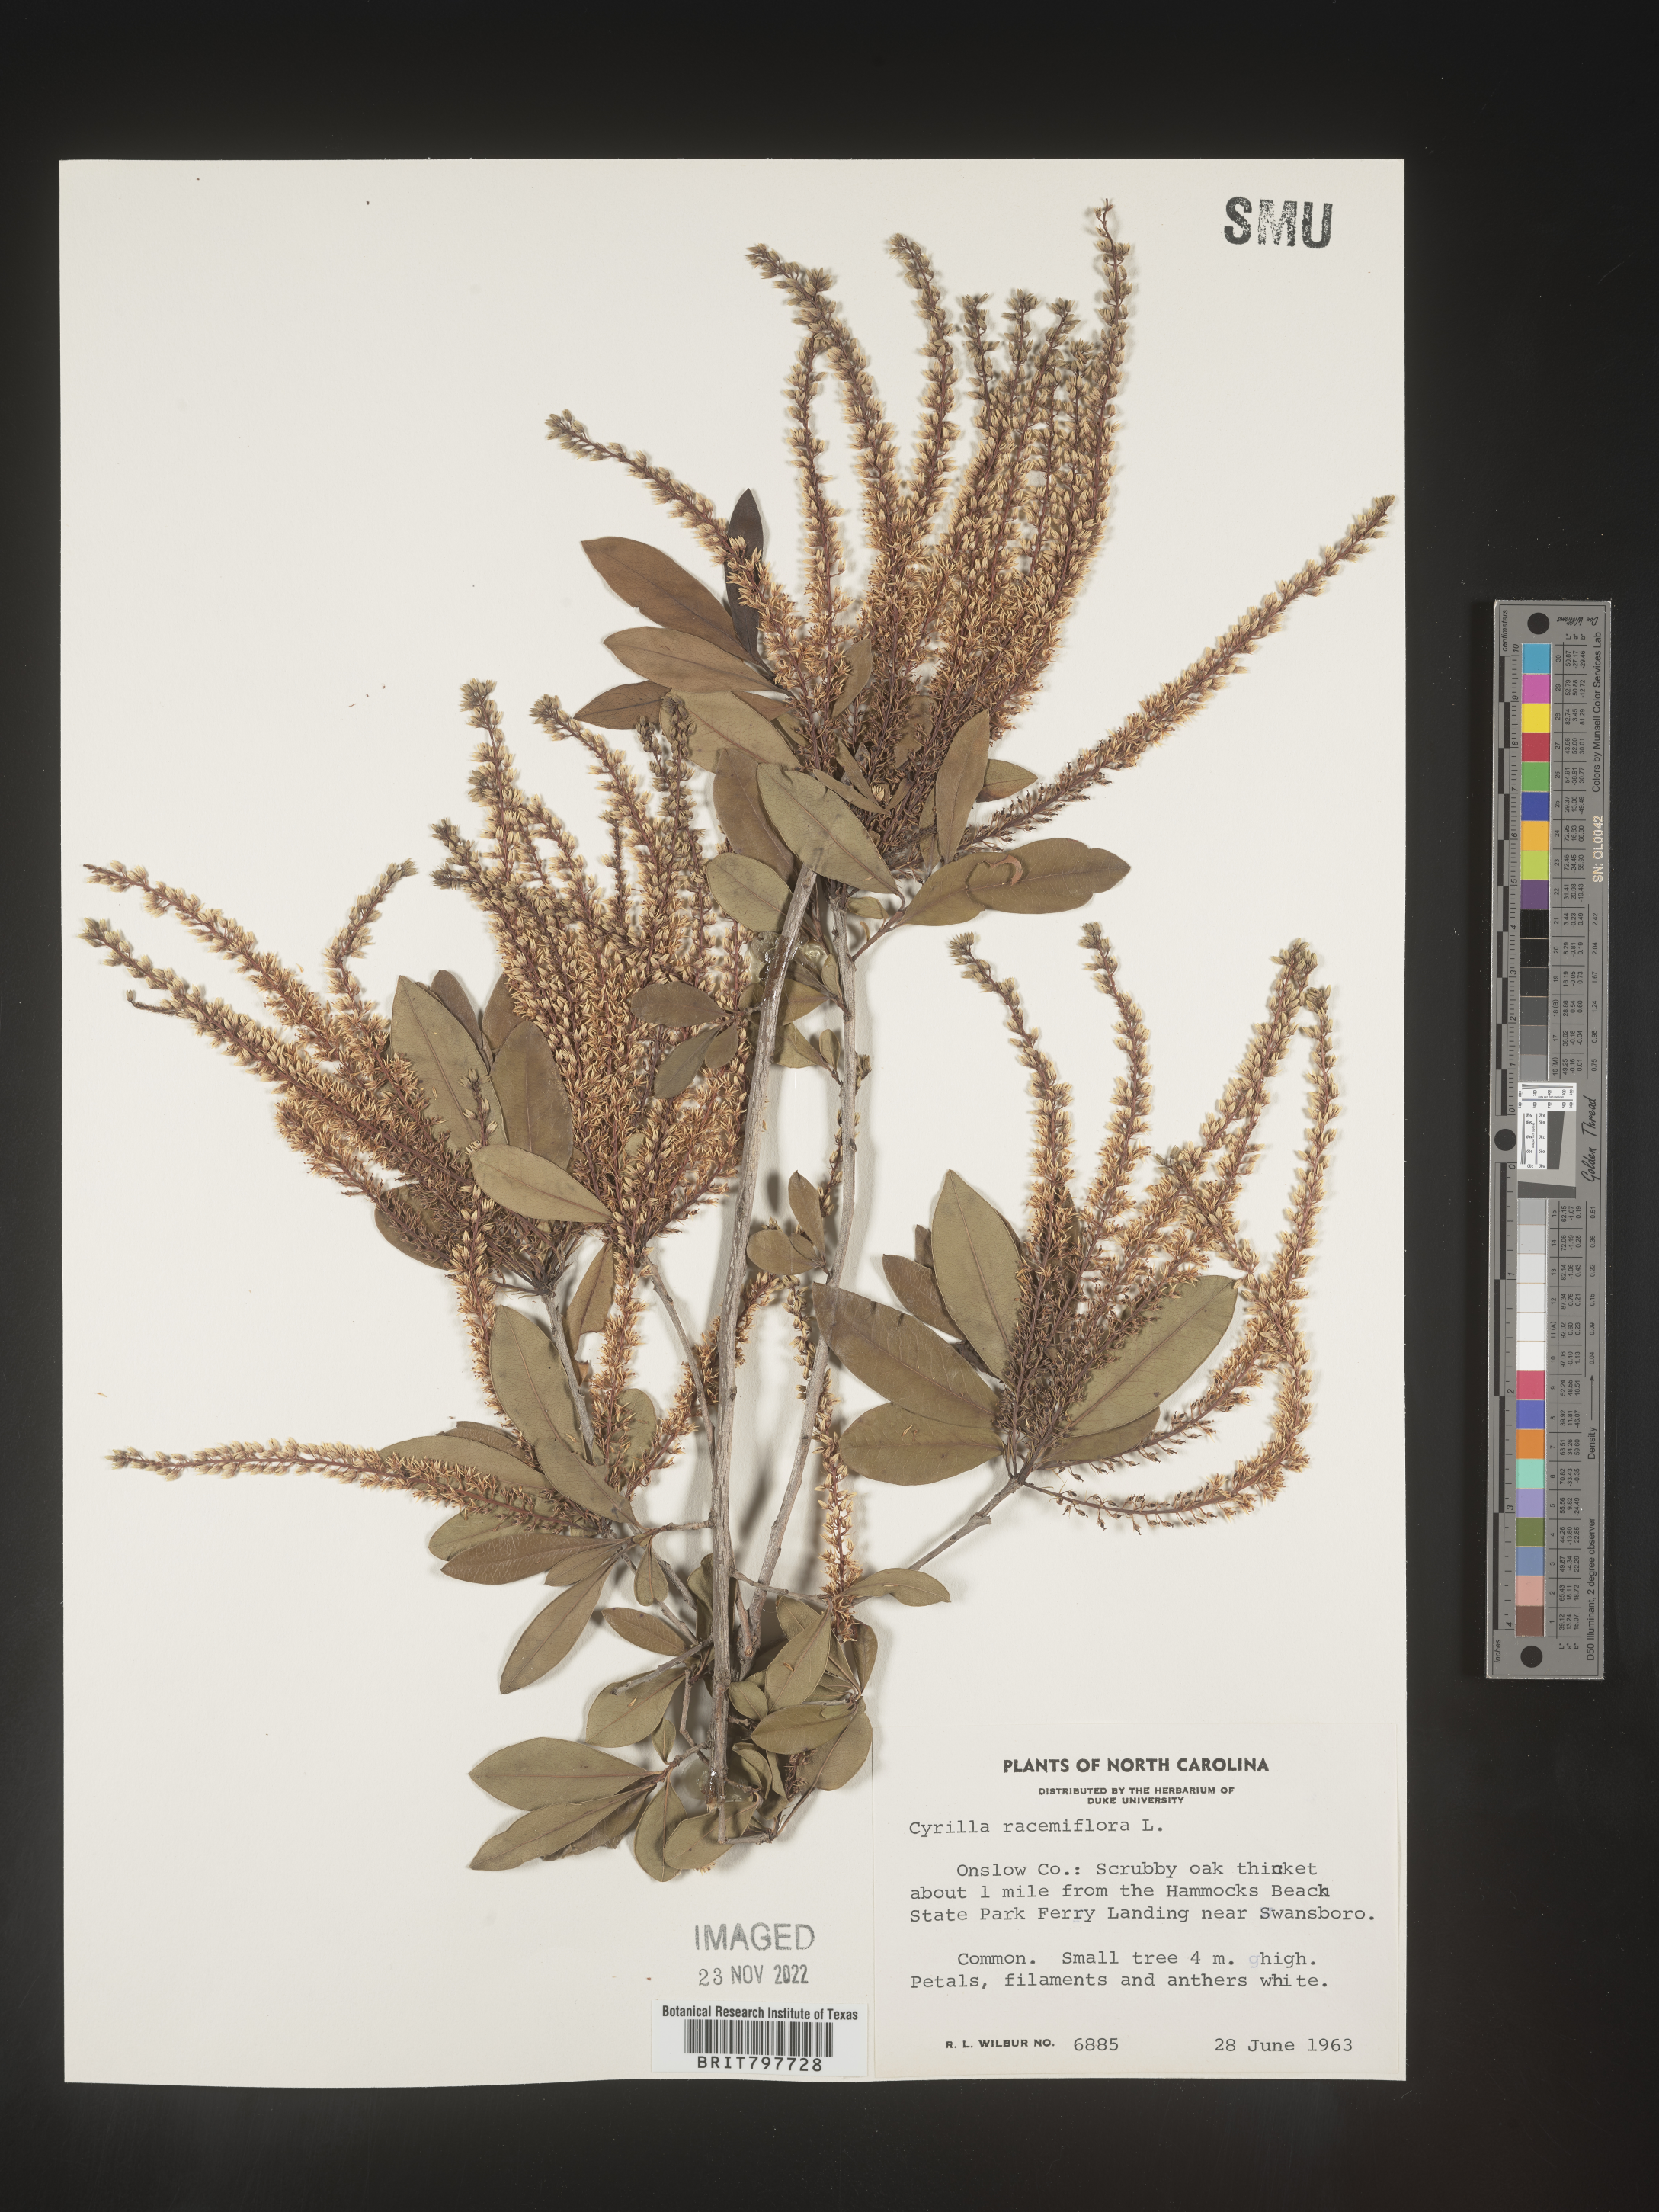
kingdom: Plantae
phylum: Tracheophyta
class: Magnoliopsida
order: Ericales
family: Cyrillaceae
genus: Cyrilla
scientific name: Cyrilla racemiflora
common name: Black titi
